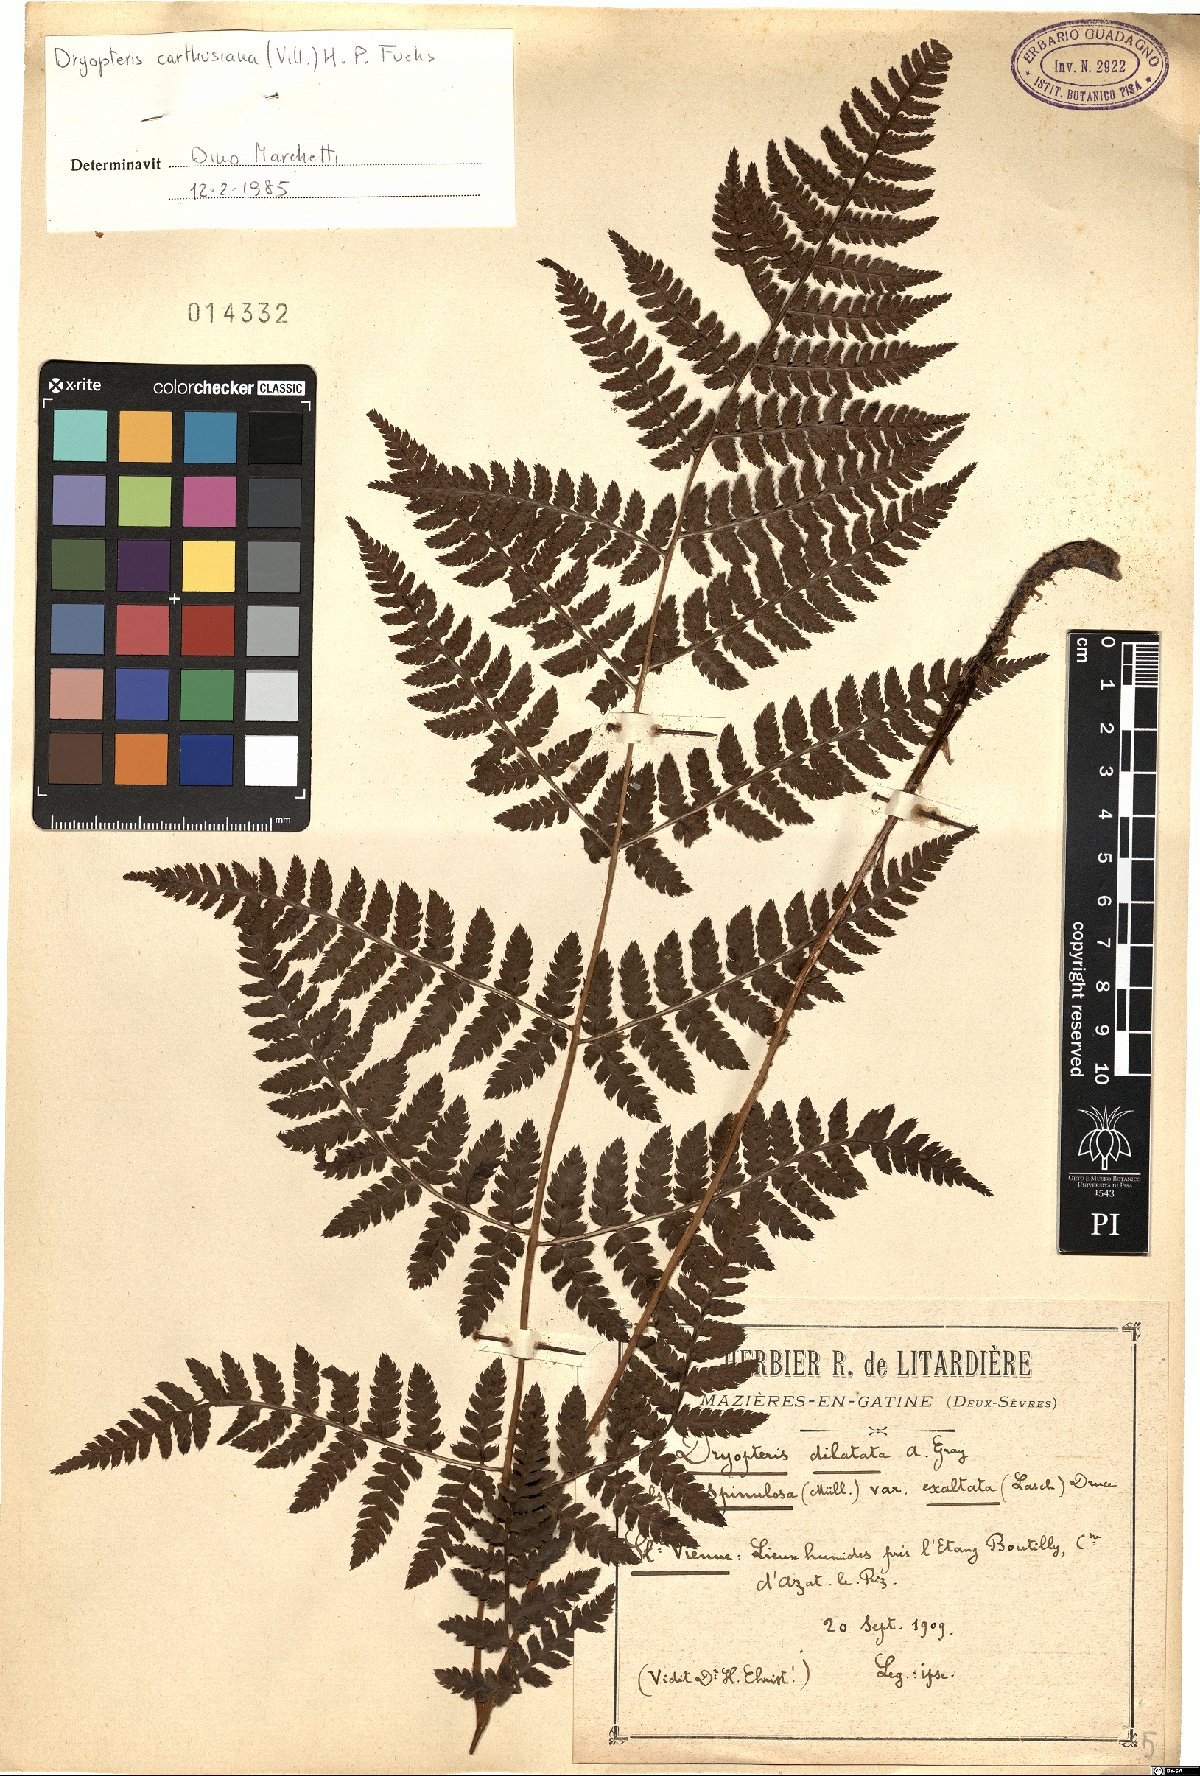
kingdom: Plantae
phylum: Tracheophyta
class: Polypodiopsida
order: Polypodiales
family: Dryopteridaceae
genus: Dryopteris
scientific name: Dryopteris carthusiana
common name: Narrow buckler-fern
